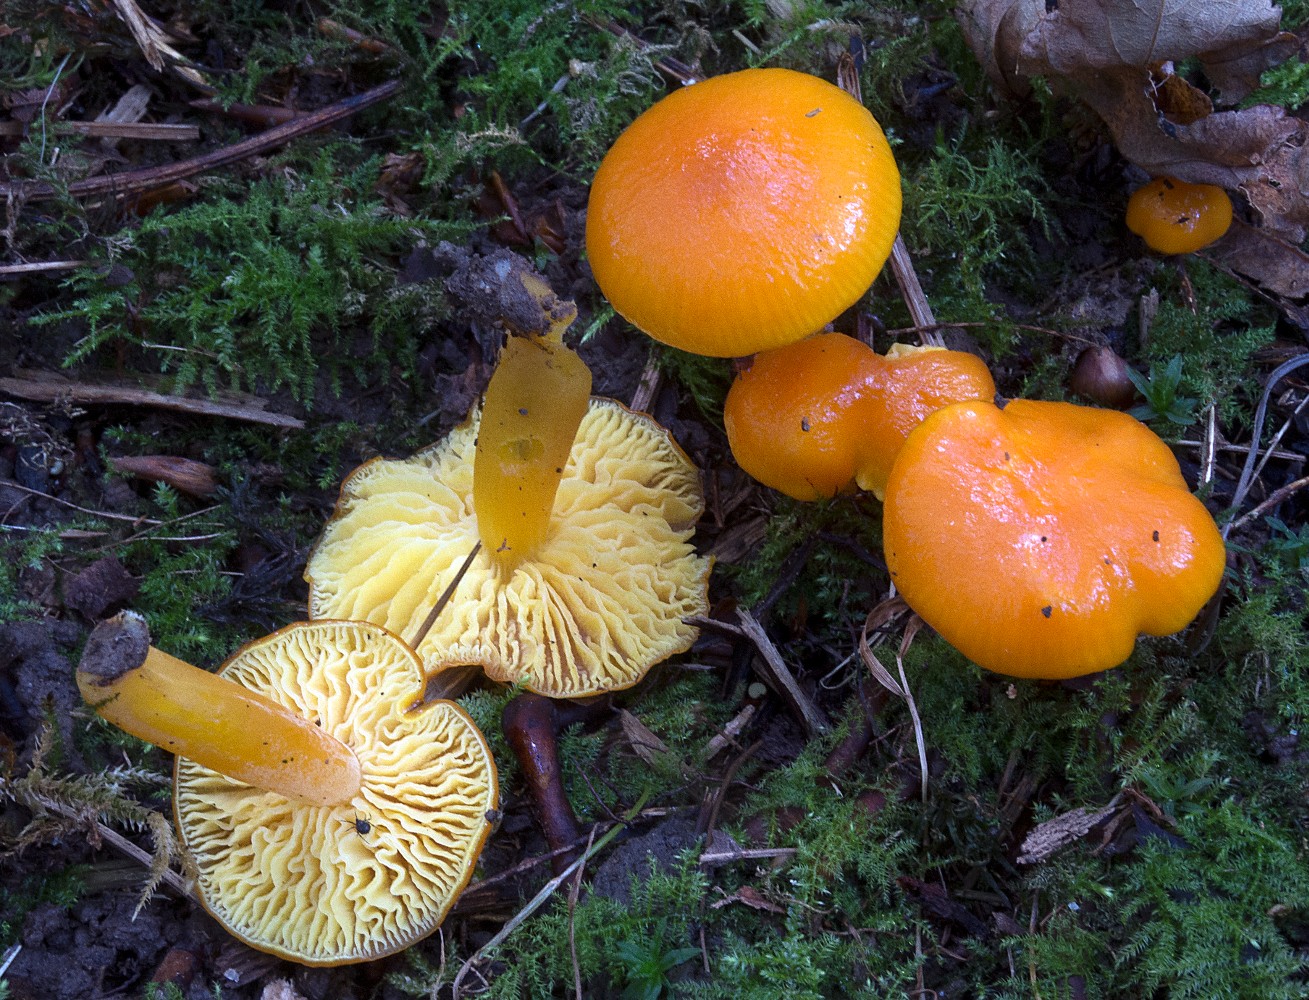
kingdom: Fungi
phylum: Basidiomycota
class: Agaricomycetes
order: Agaricales
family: Hygrophoraceae
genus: Hygrocybe
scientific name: Hygrocybe chlorophana
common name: gul vokshat
